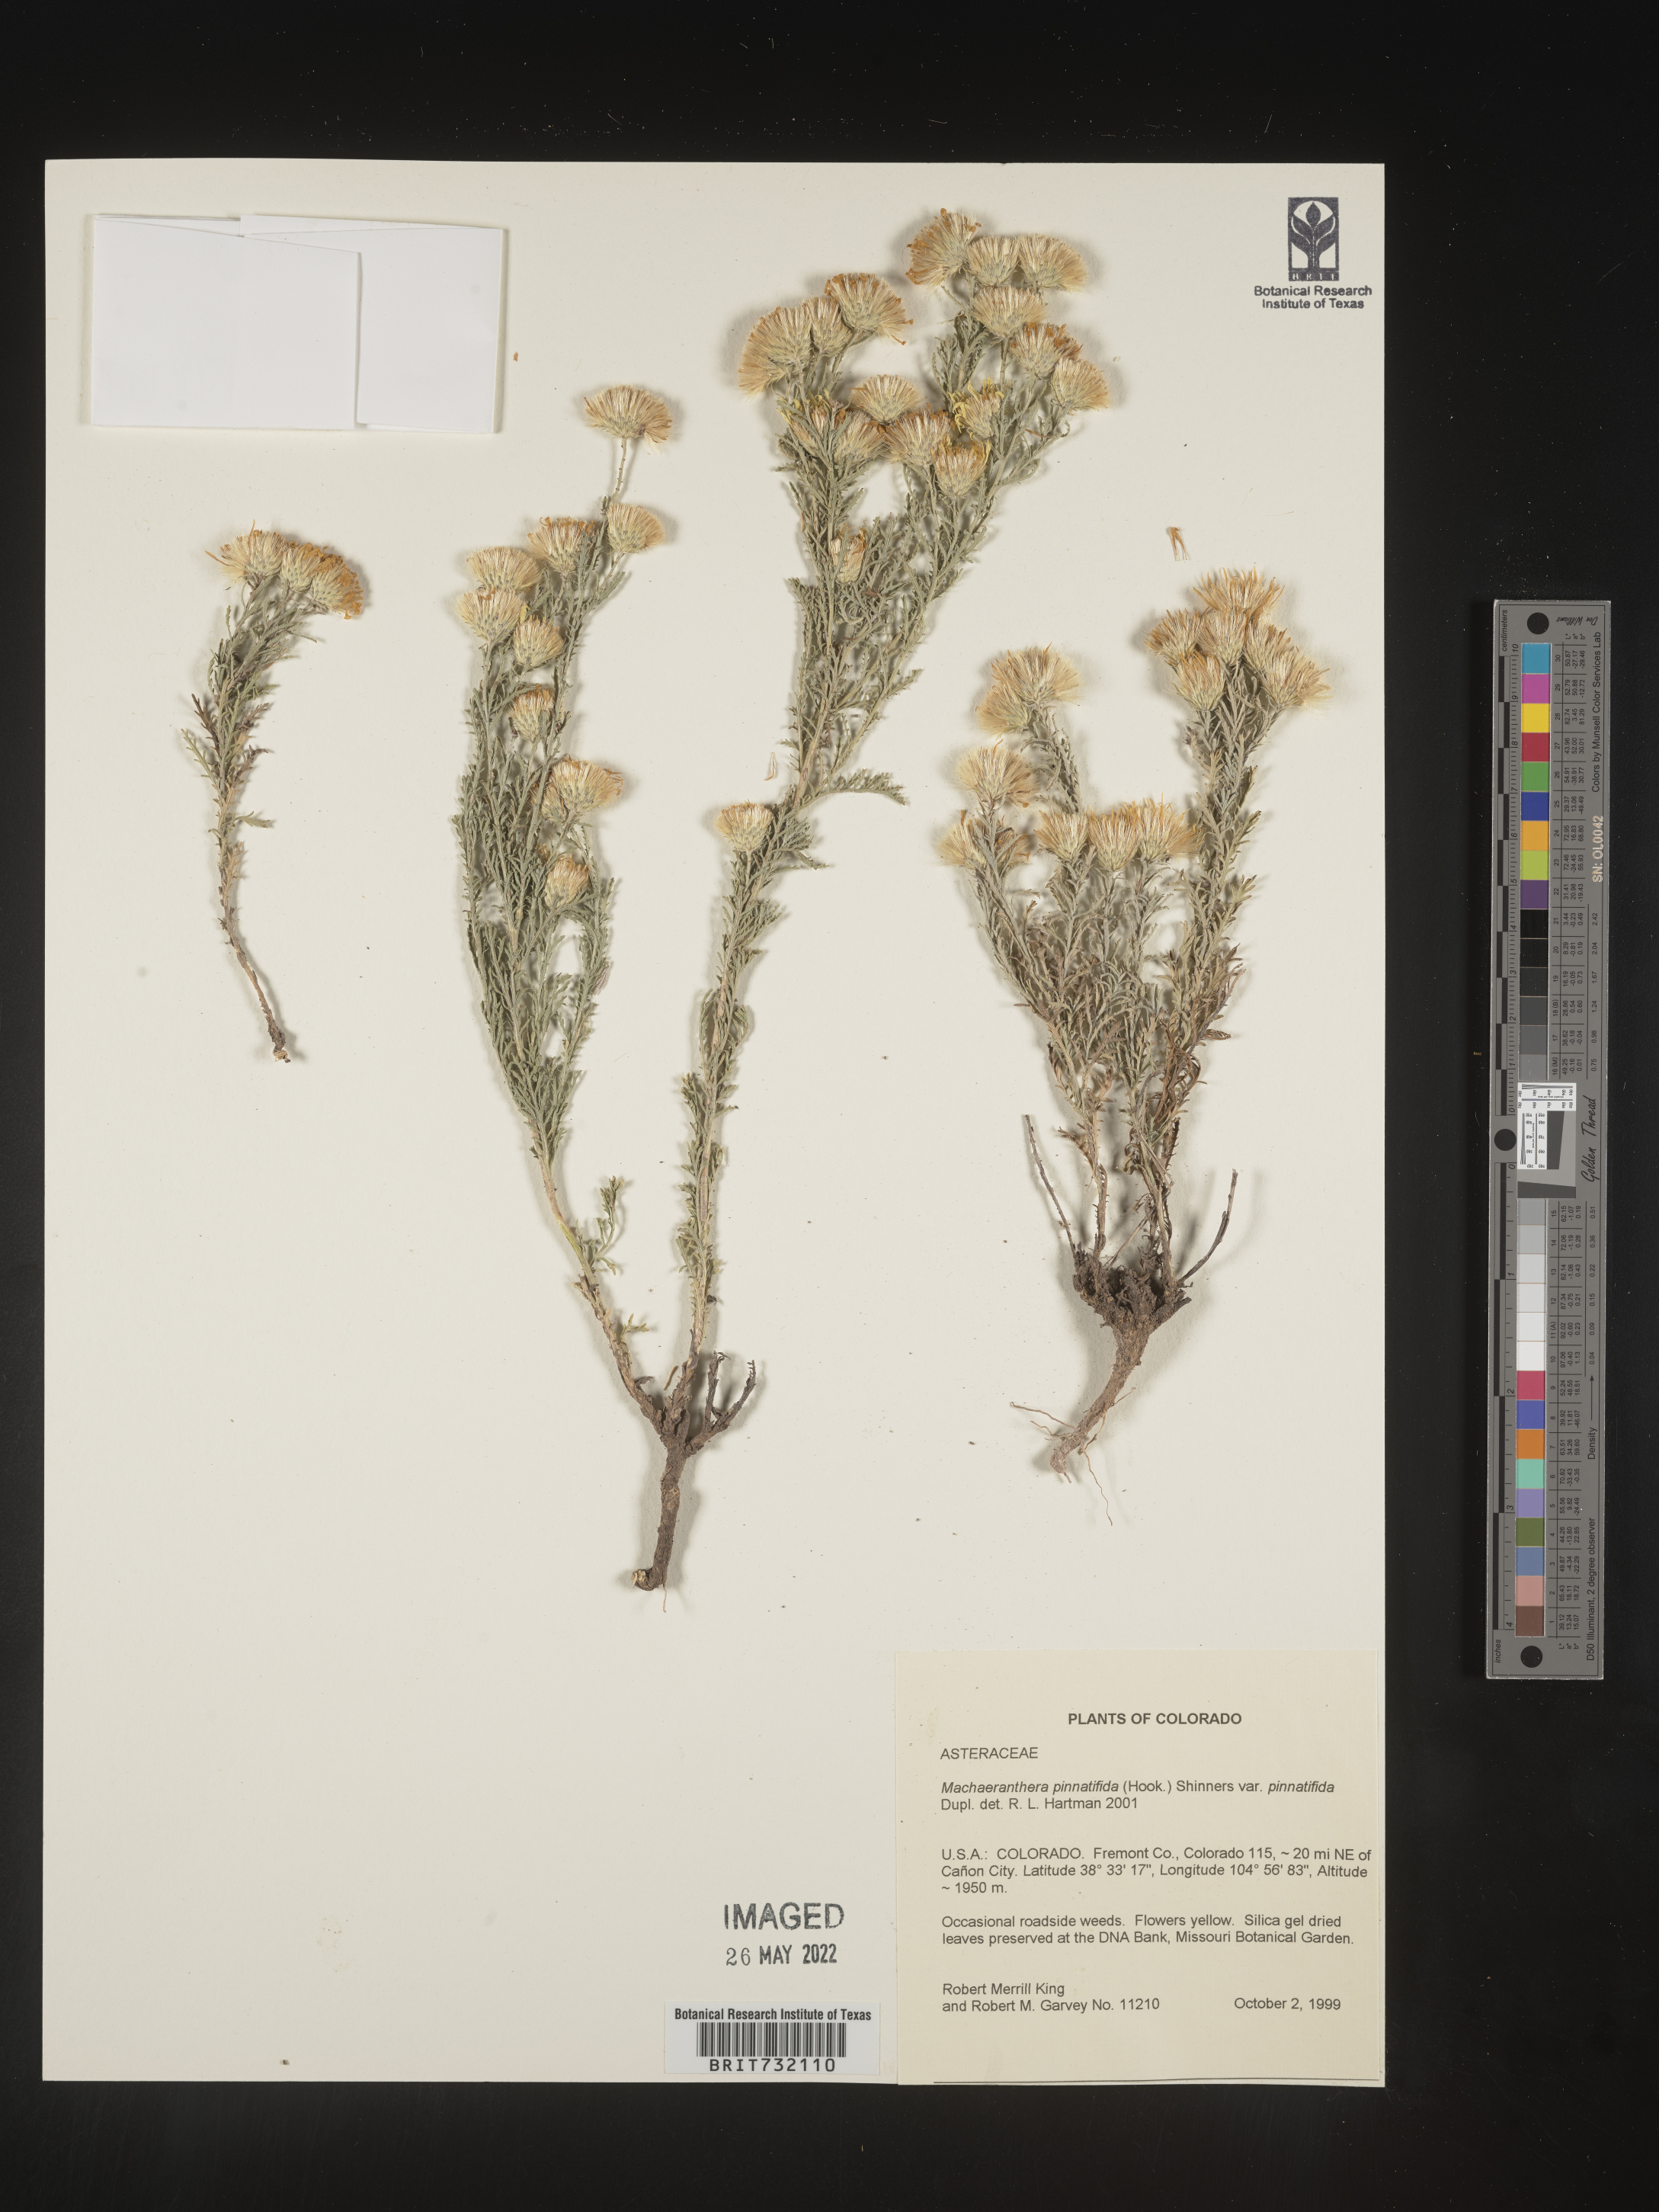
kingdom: Plantae
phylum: Tracheophyta
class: Magnoliopsida
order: Asterales
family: Asteraceae
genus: Xanthisma
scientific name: Xanthisma spinulosum
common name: Spiny goldenweed
